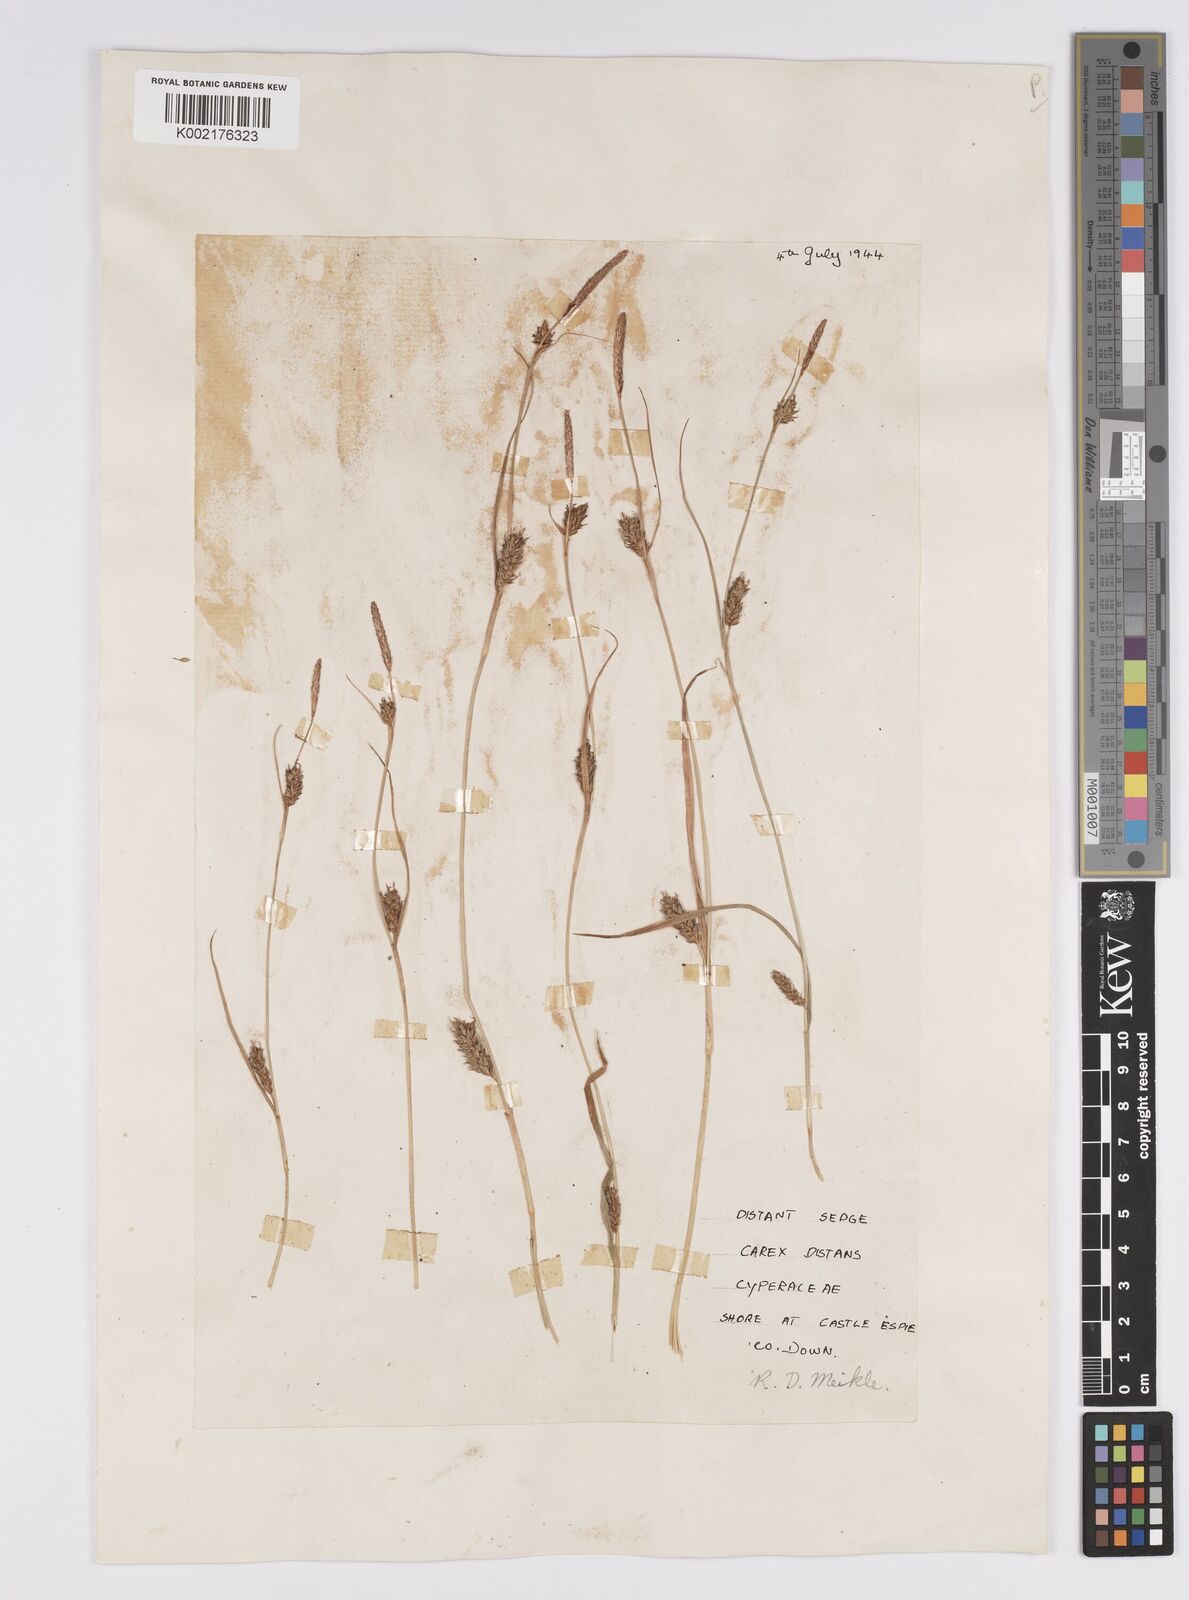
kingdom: Plantae
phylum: Tracheophyta
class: Liliopsida
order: Poales
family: Cyperaceae
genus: Carex
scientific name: Carex distans
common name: Distant sedge
